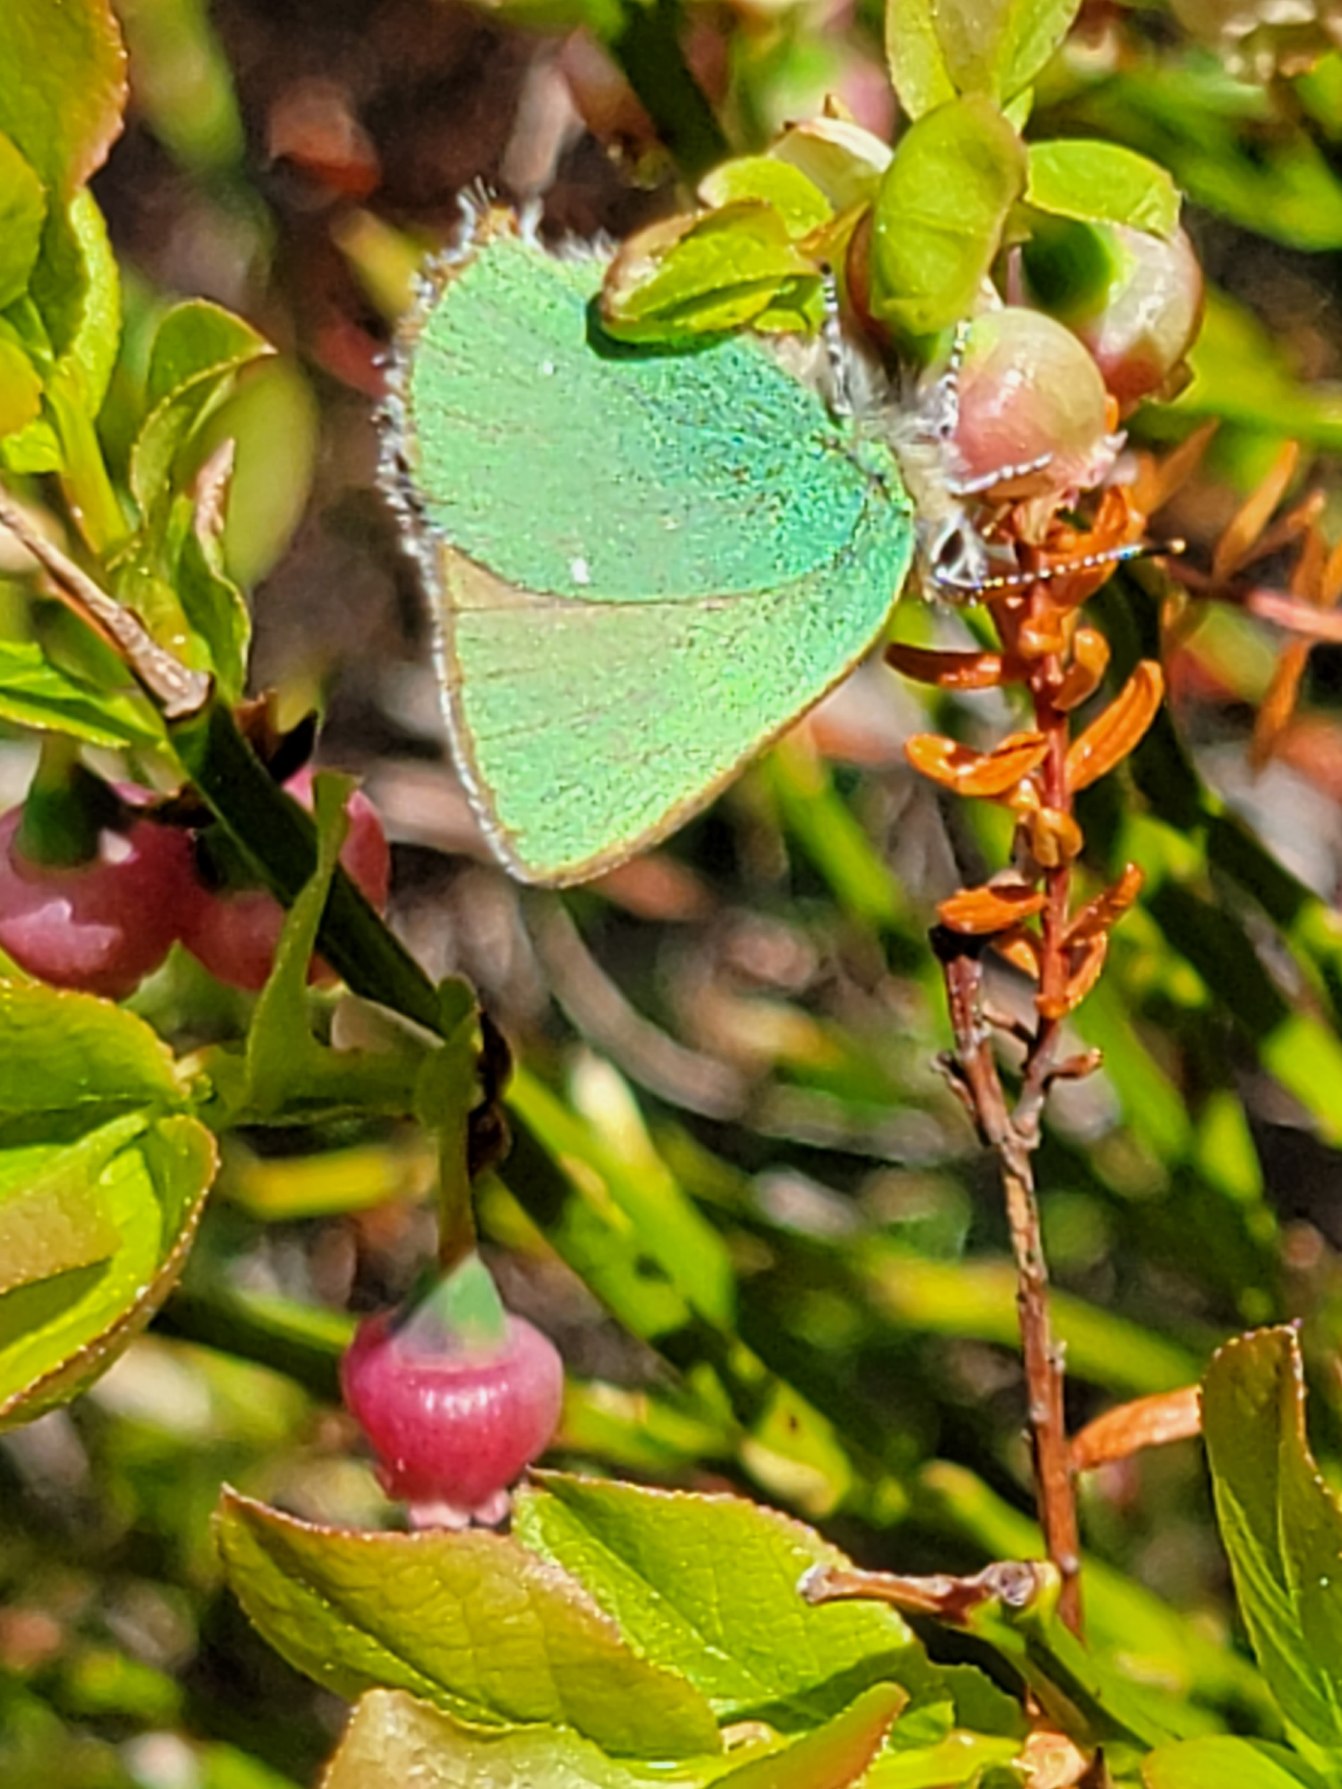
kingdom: Animalia
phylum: Arthropoda
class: Insecta
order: Lepidoptera
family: Lycaenidae
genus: Callophrys
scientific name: Callophrys rubi
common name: Grøn busksommerfugl
